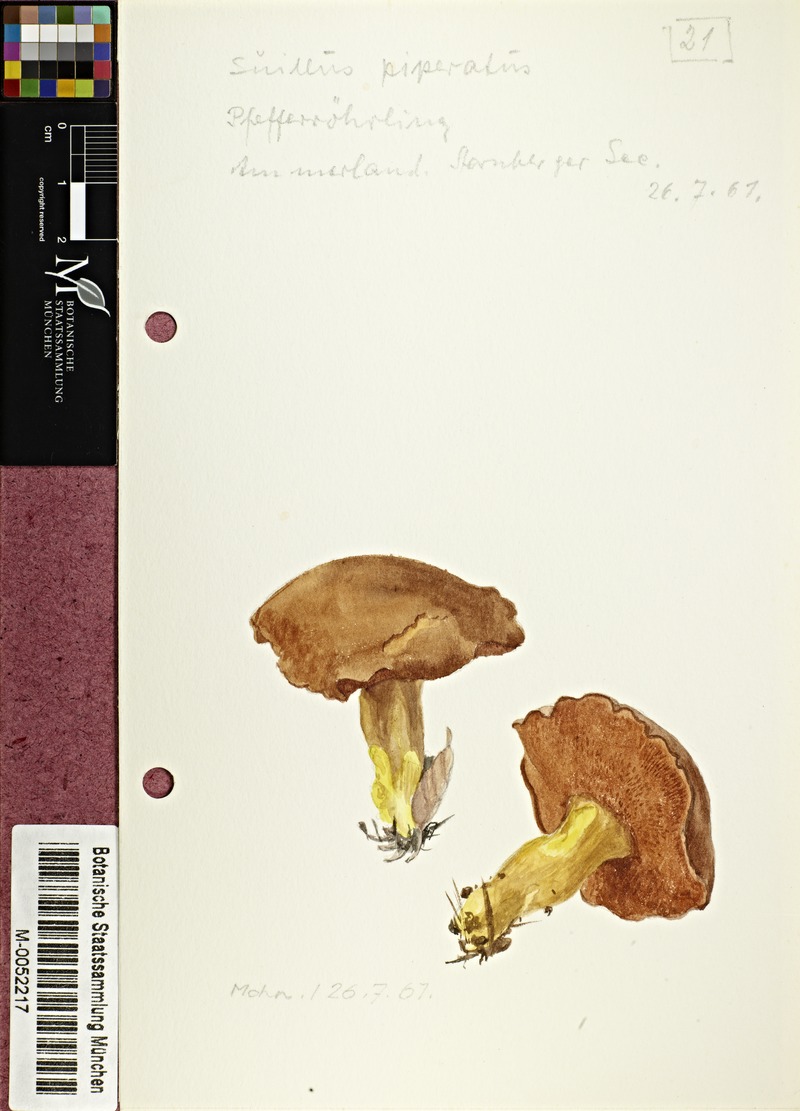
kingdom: Fungi
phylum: Basidiomycota
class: Agaricomycetes
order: Boletales
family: Boletaceae
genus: Chalciporus
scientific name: Chalciporus piperatus
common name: Peppery bolete
